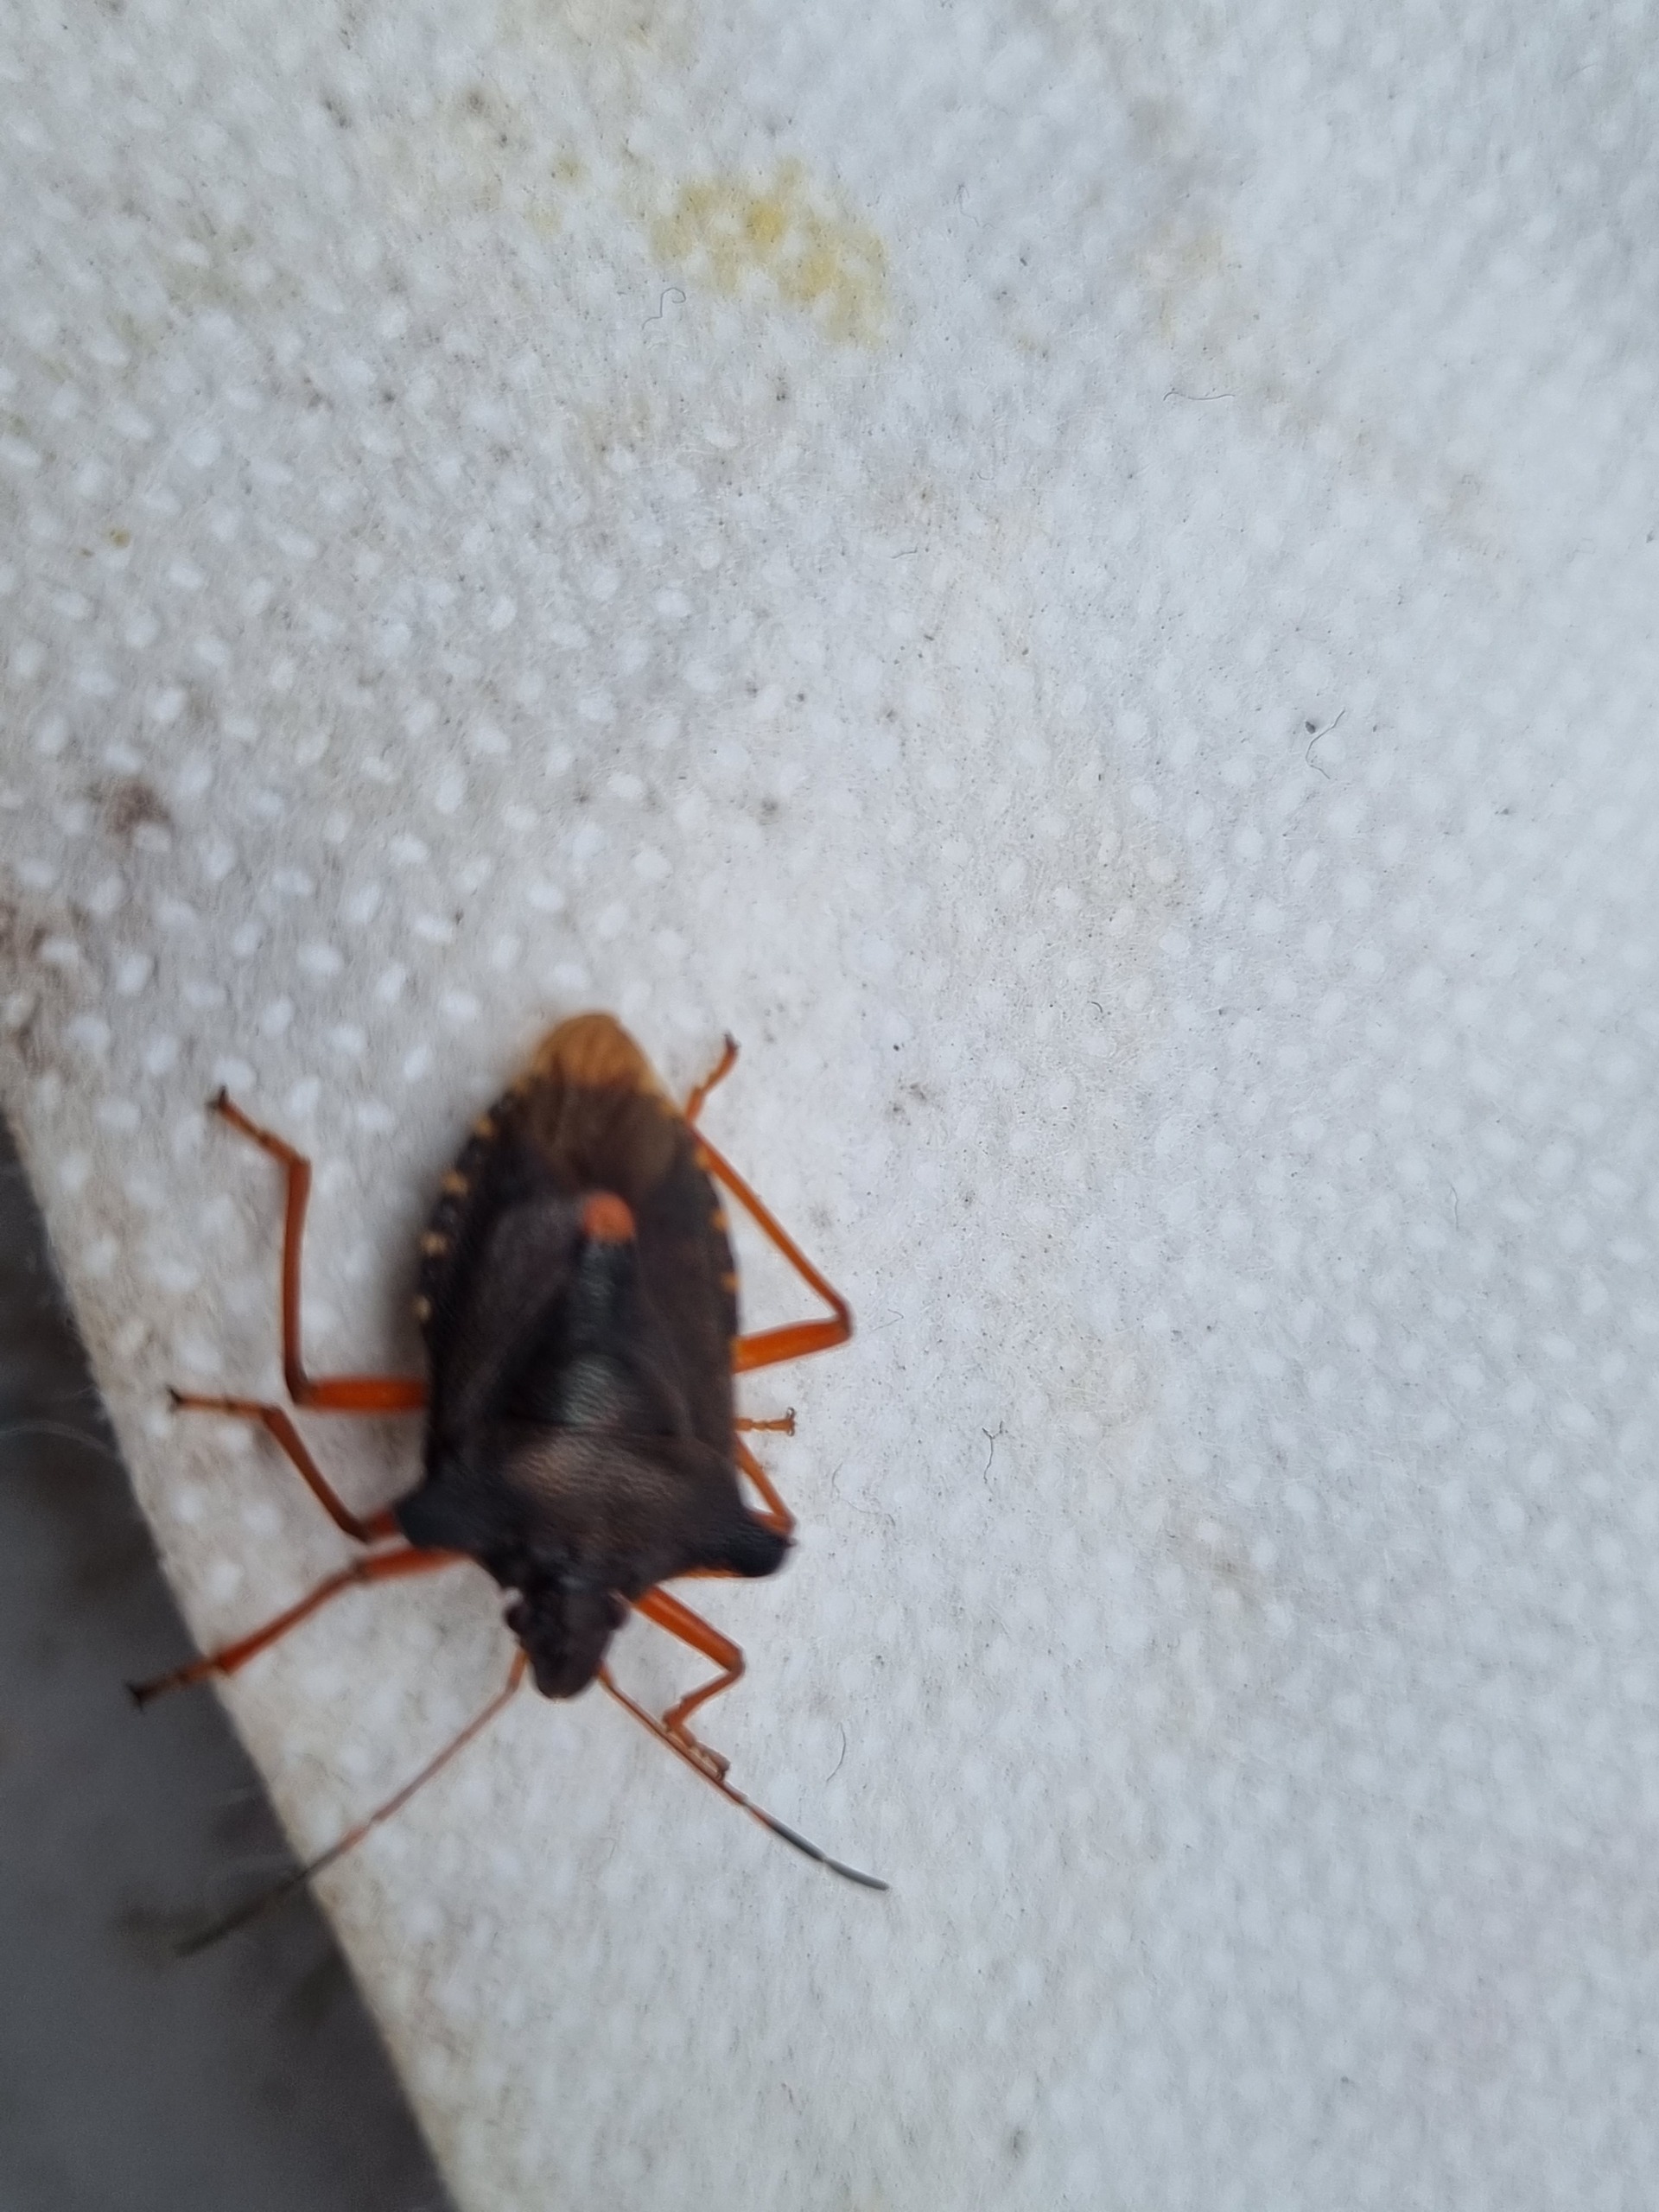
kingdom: Animalia
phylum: Arthropoda
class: Insecta
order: Hemiptera
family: Pentatomidae
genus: Pentatoma
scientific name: Pentatoma rufipes
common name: Rødbenet bredtæge
